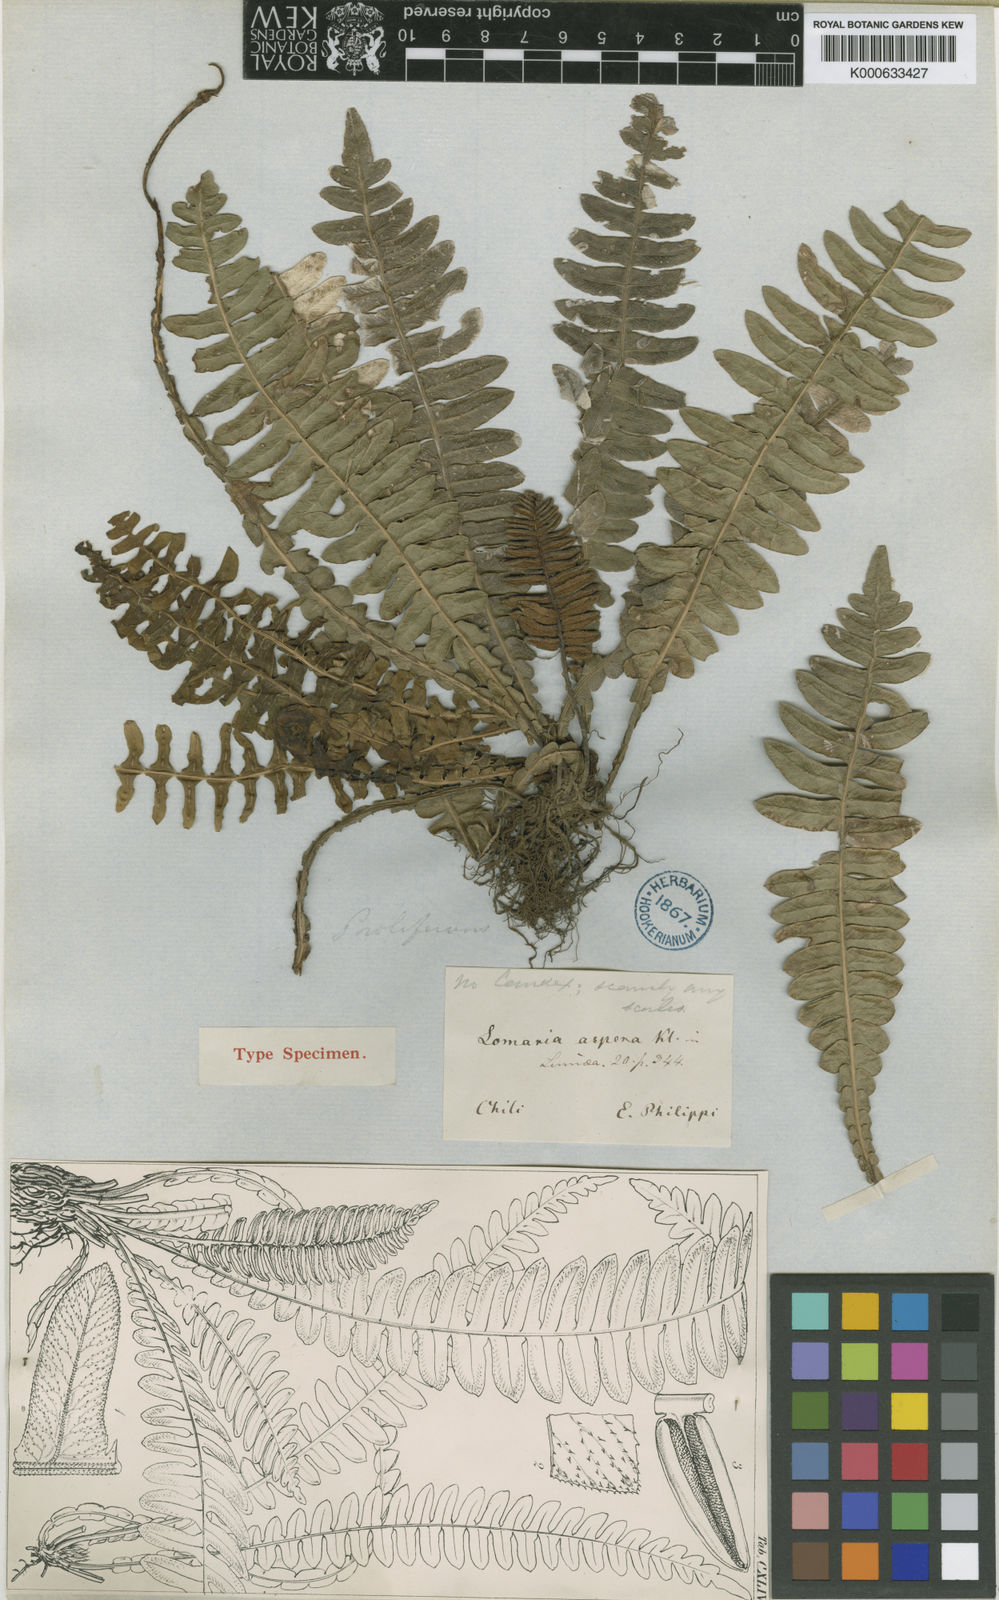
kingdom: Plantae
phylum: Tracheophyta
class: Polypodiopsida
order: Polypodiales
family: Blechnaceae
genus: Austroblechnum
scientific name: Austroblechnum asperum
